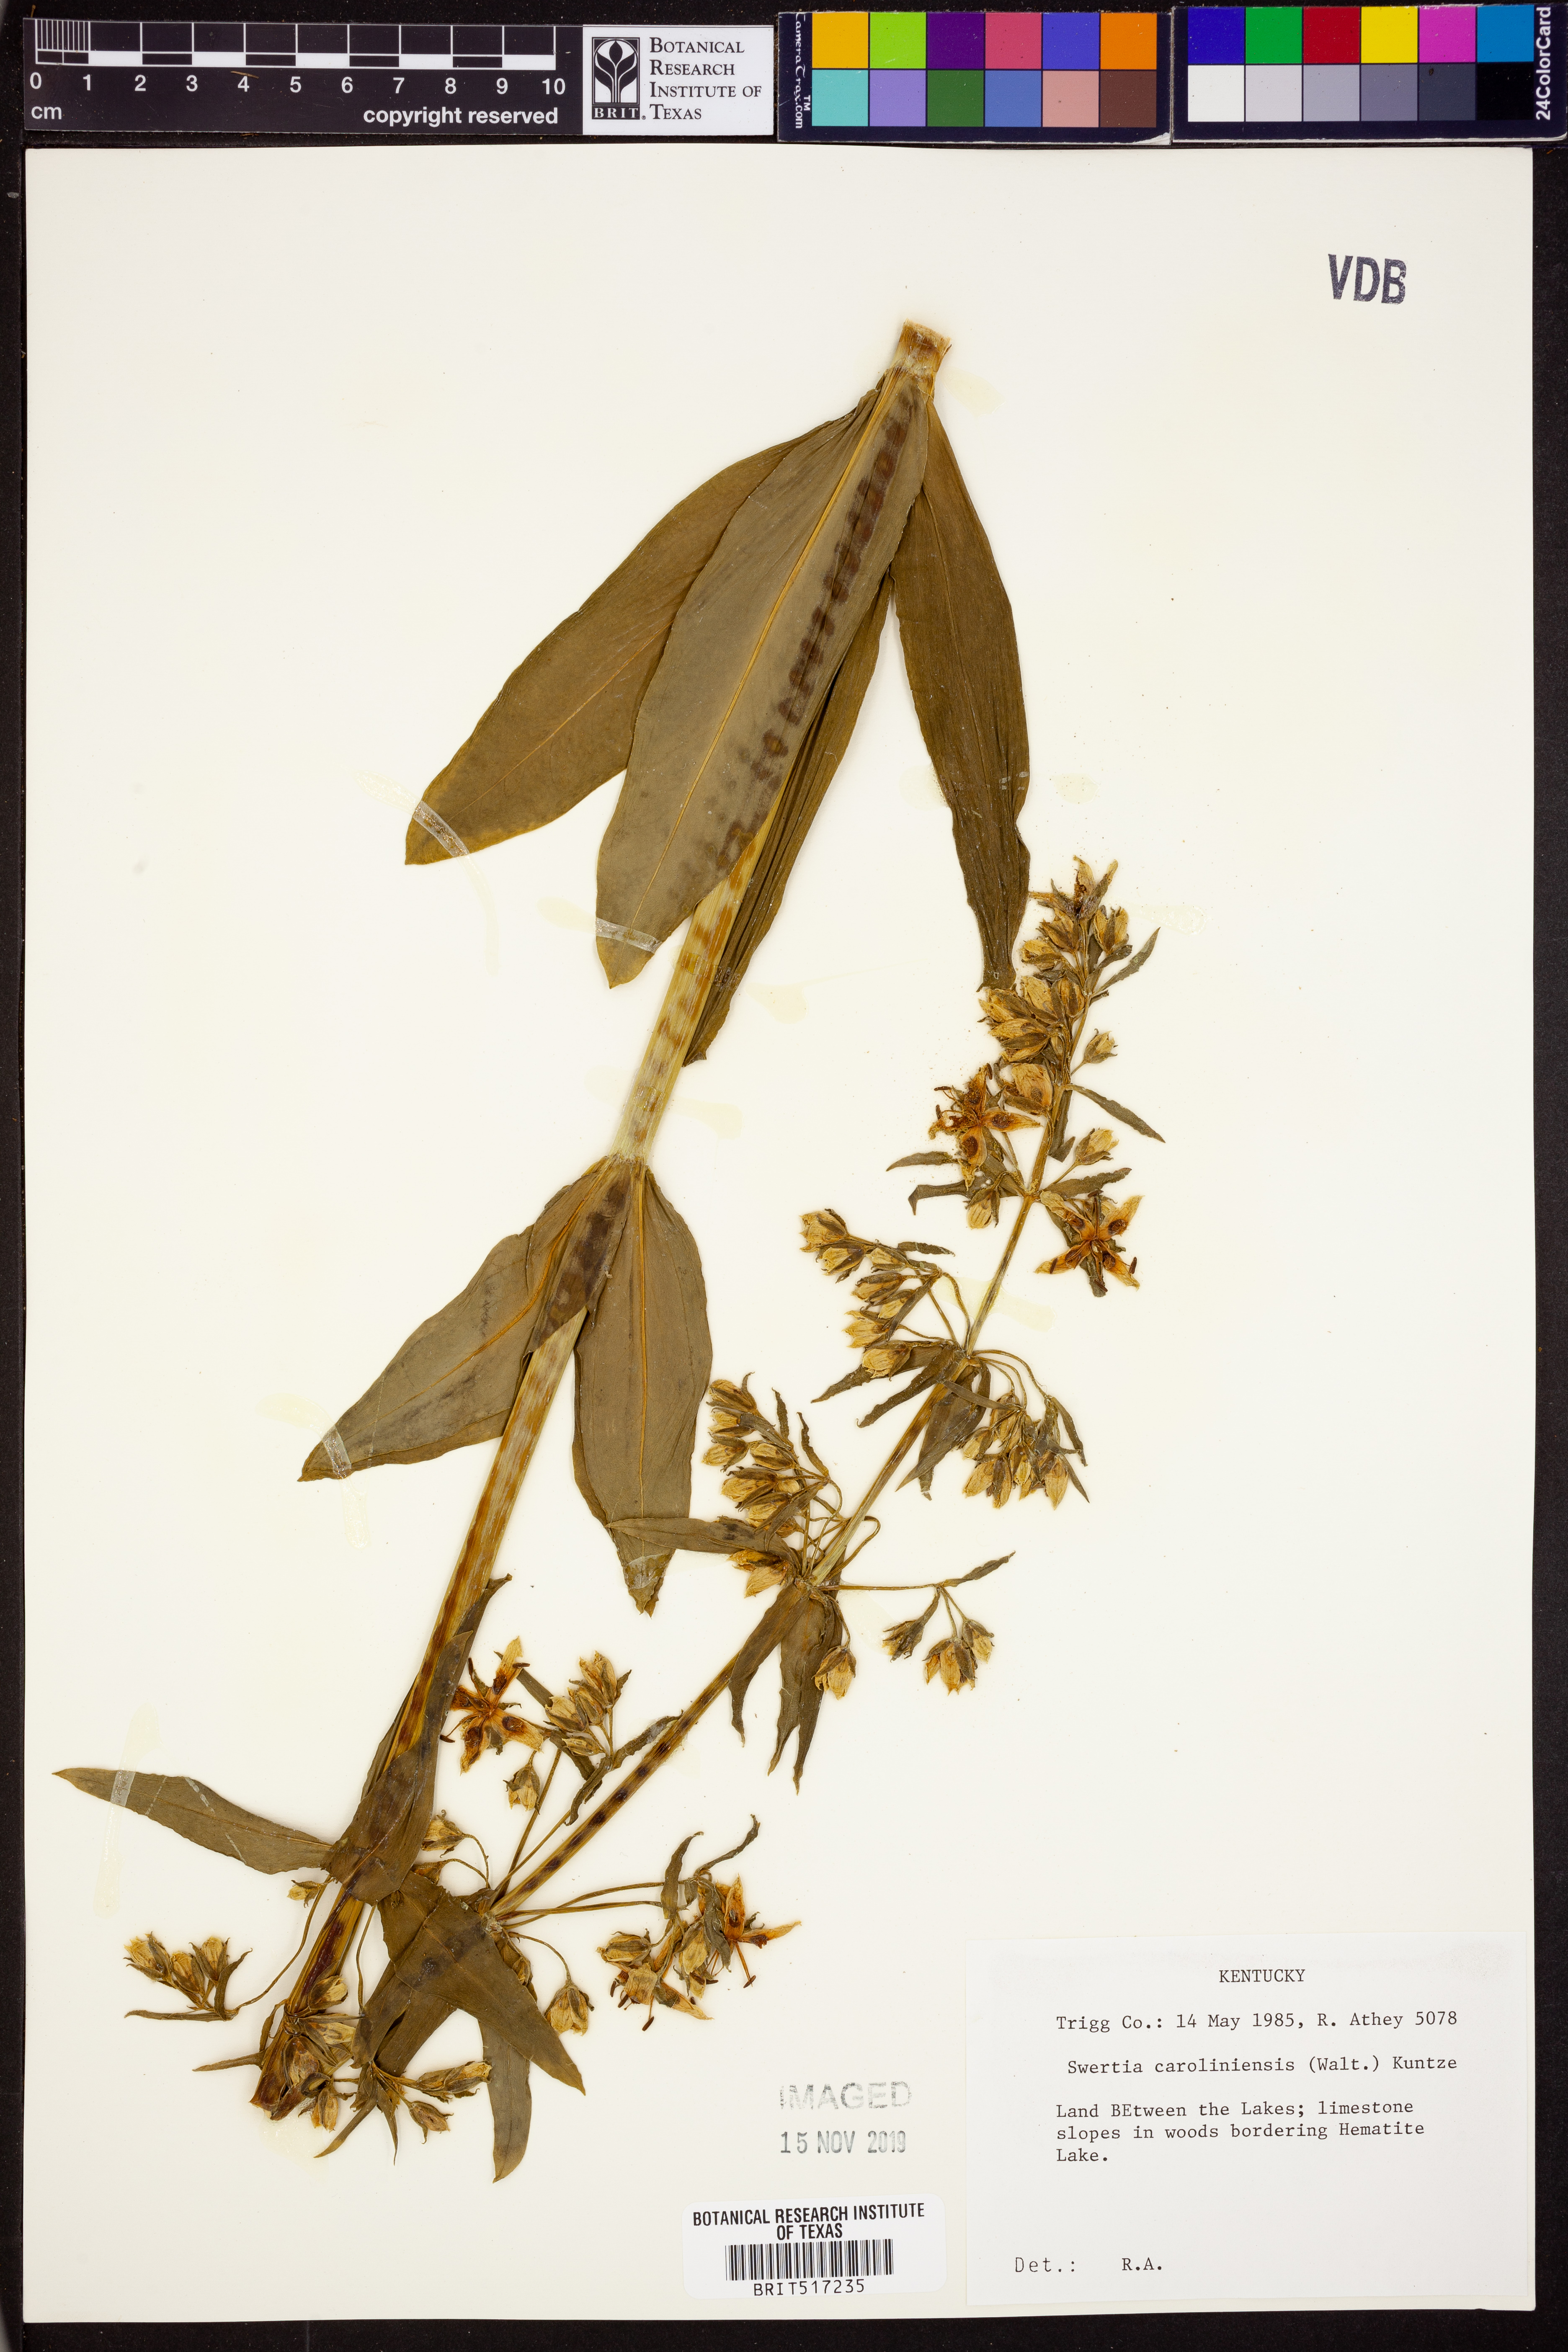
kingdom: Plantae
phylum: Tracheophyta
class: Magnoliopsida
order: Gentianales
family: Gentianaceae
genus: Frasera
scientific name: Frasera carolinensis
